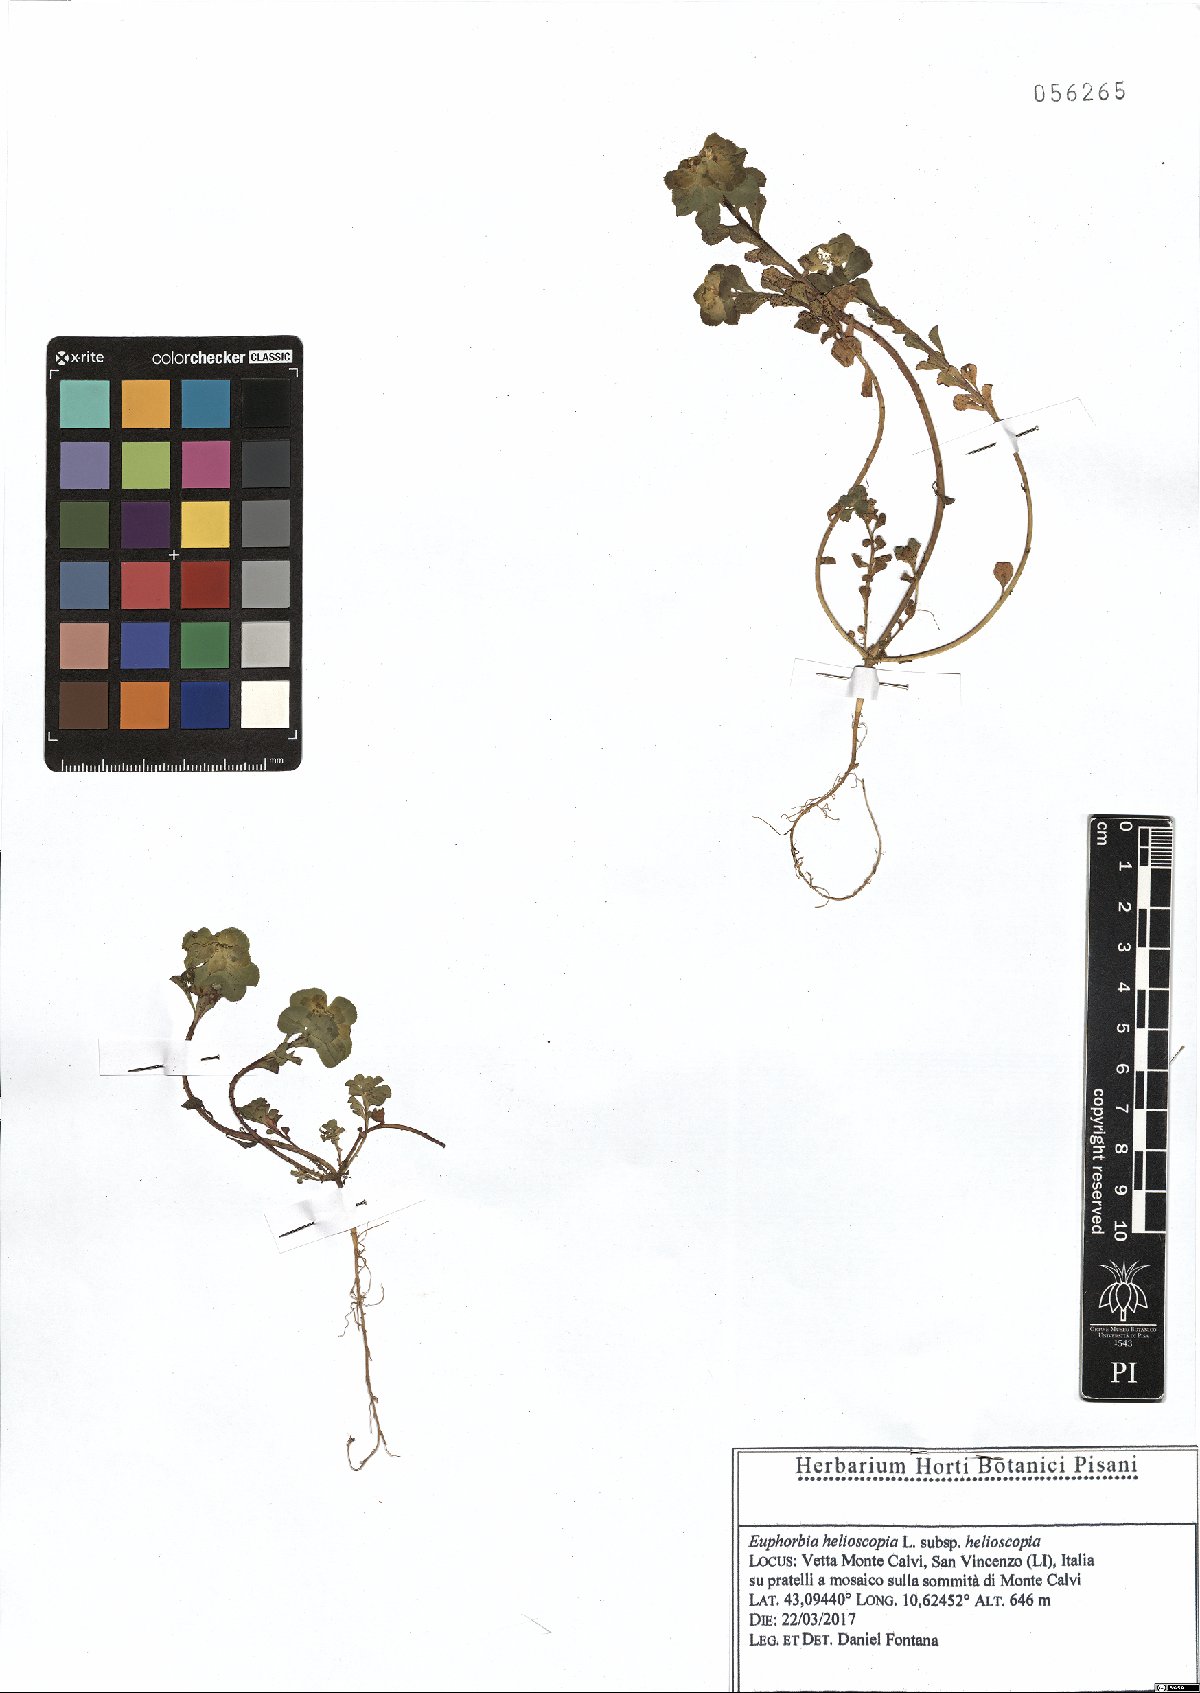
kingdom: Plantae
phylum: Tracheophyta
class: Magnoliopsida
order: Malpighiales
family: Euphorbiaceae
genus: Euphorbia
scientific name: Euphorbia helioscopia
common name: Sun spurge
